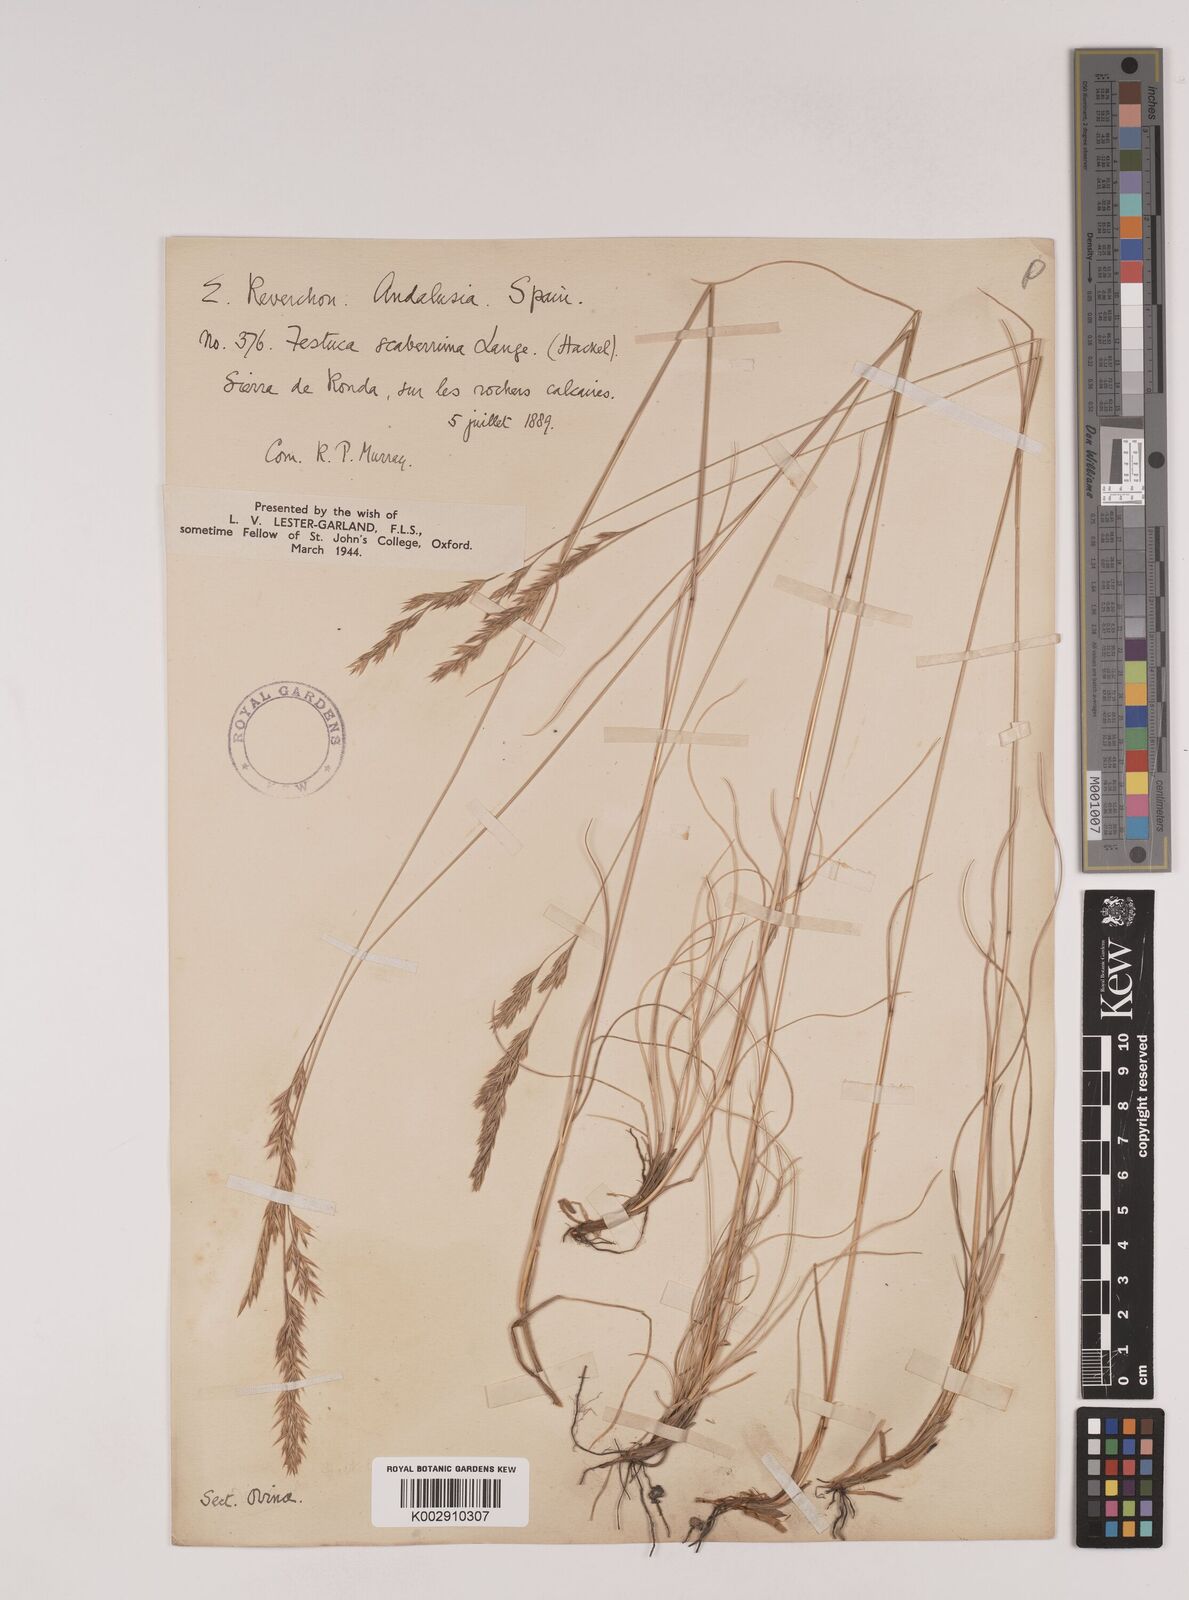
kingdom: Plantae
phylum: Tracheophyta
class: Liliopsida
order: Poales
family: Poaceae
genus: Festuca
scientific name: Festuca capillifolia
